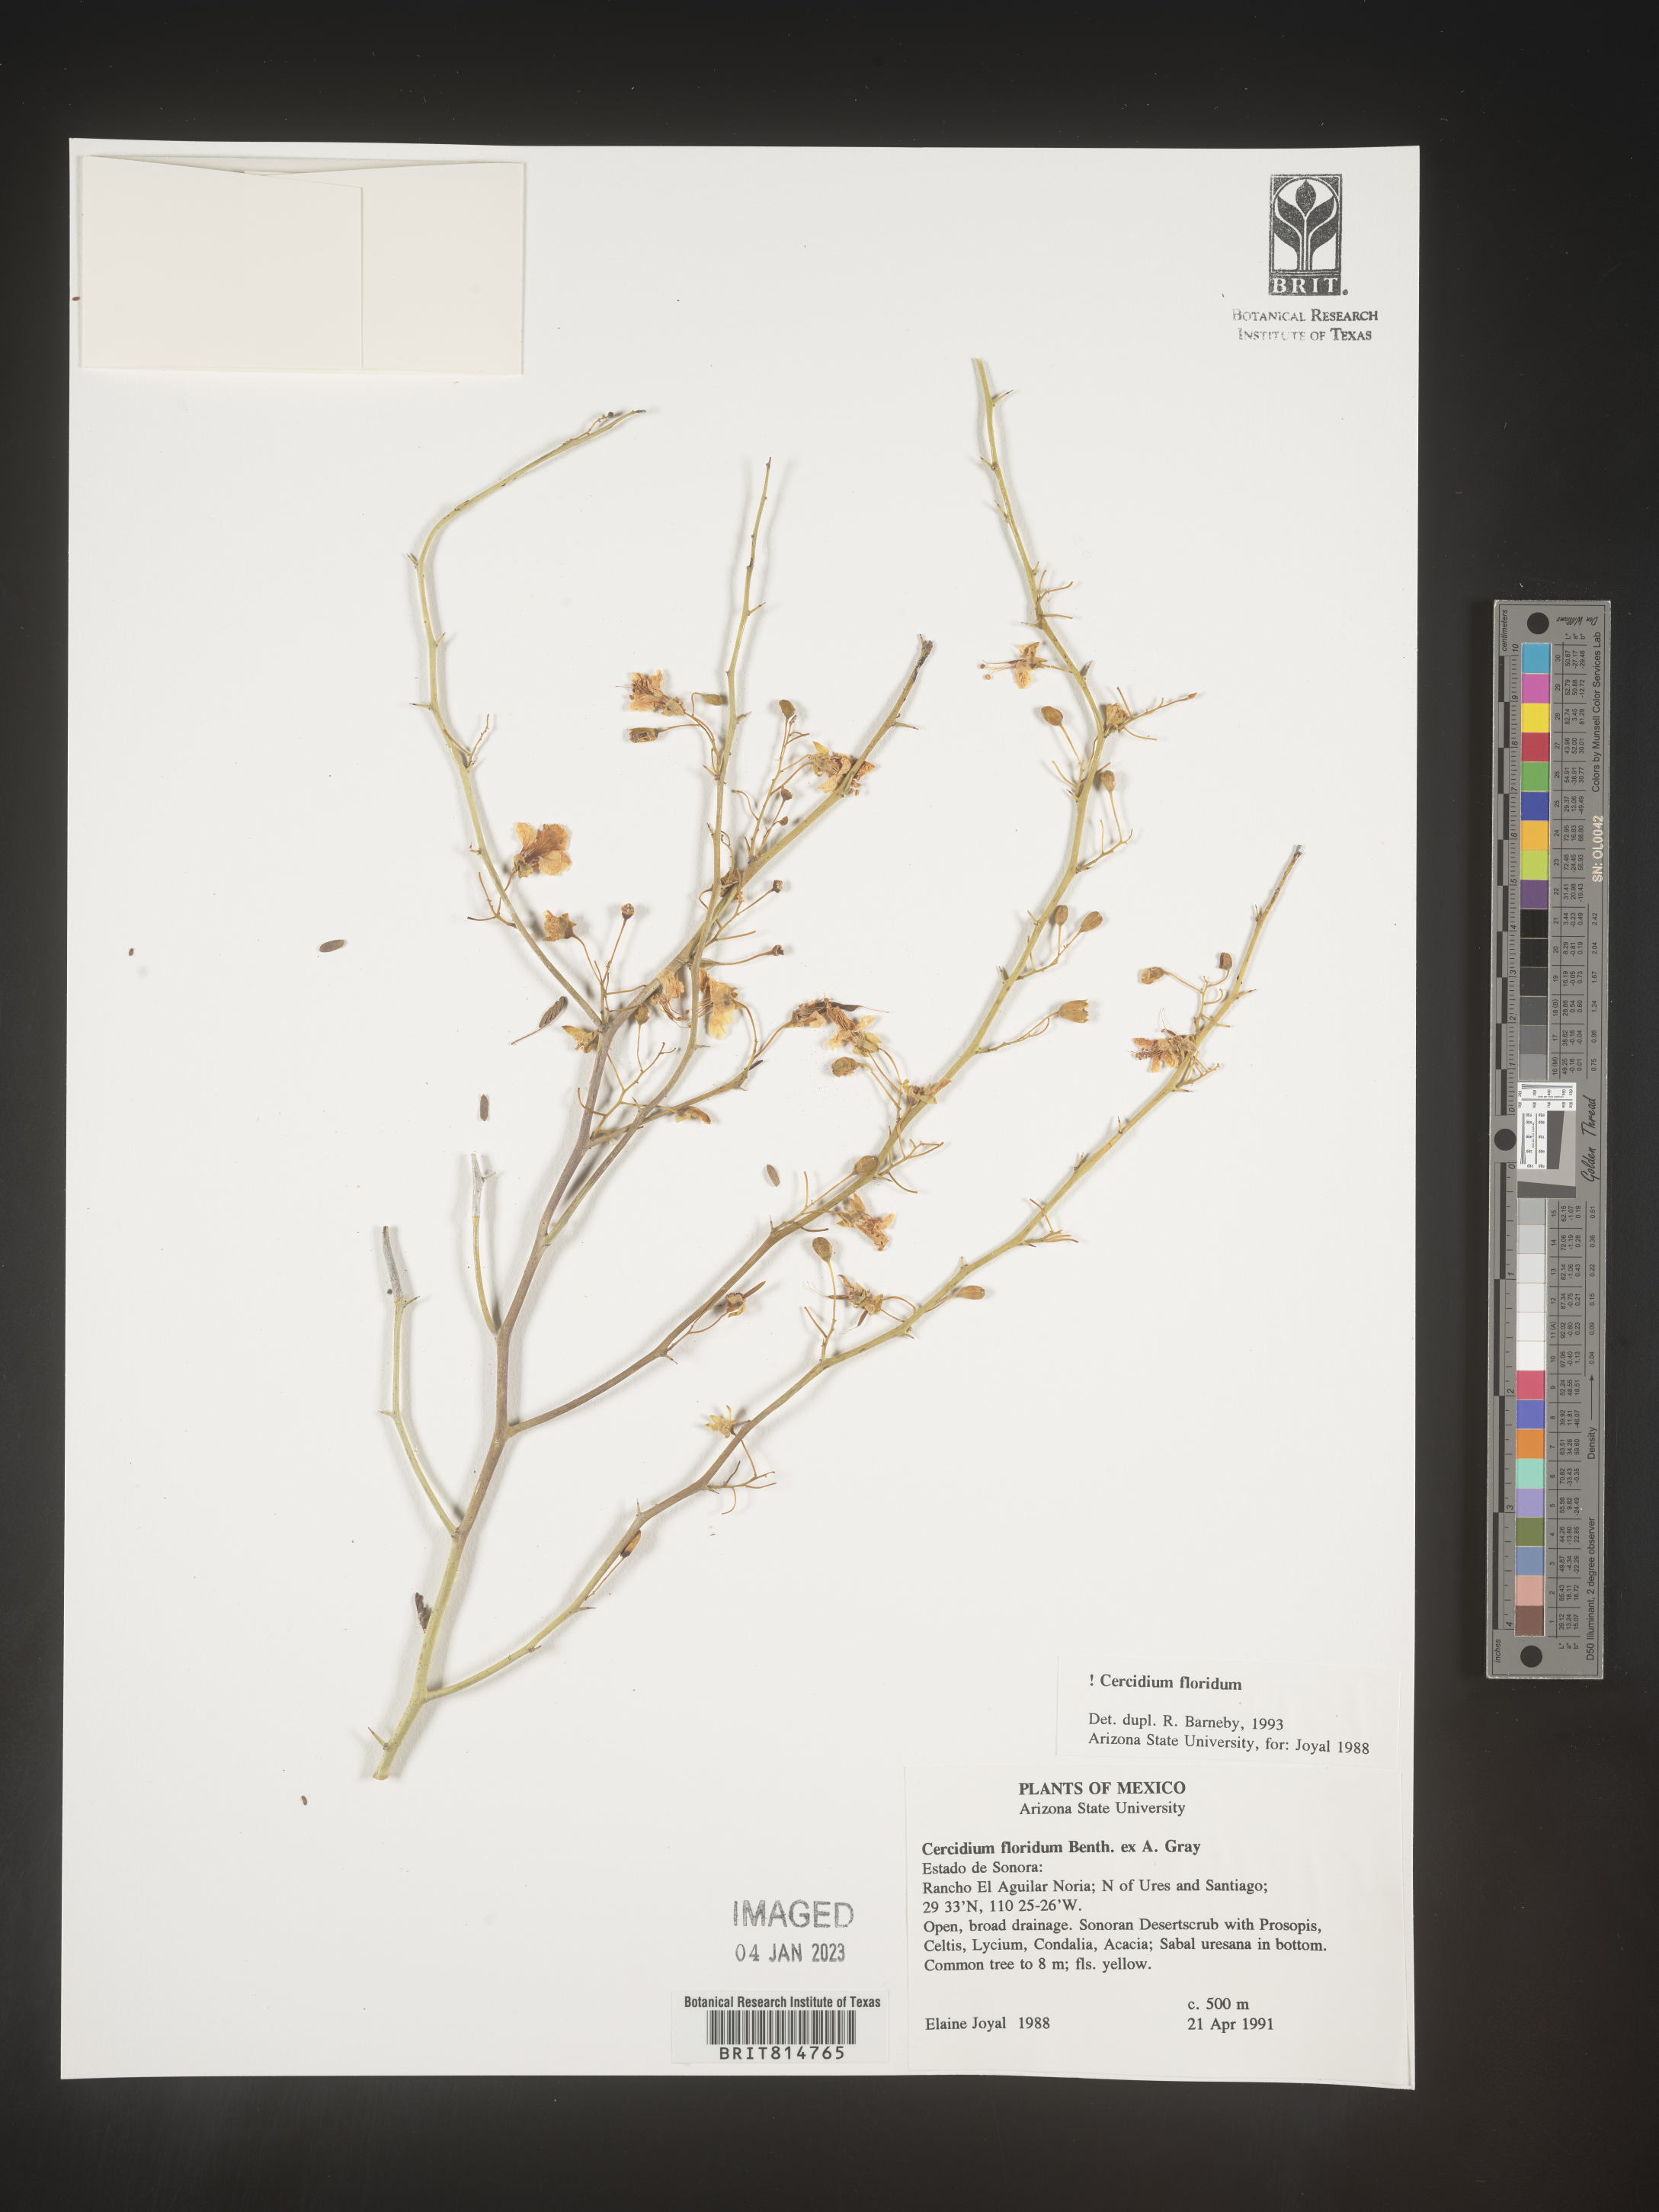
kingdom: Plantae
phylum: Tracheophyta
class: Magnoliopsida
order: Fabales
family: Fabaceae
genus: Calliandra
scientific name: Calliandra
